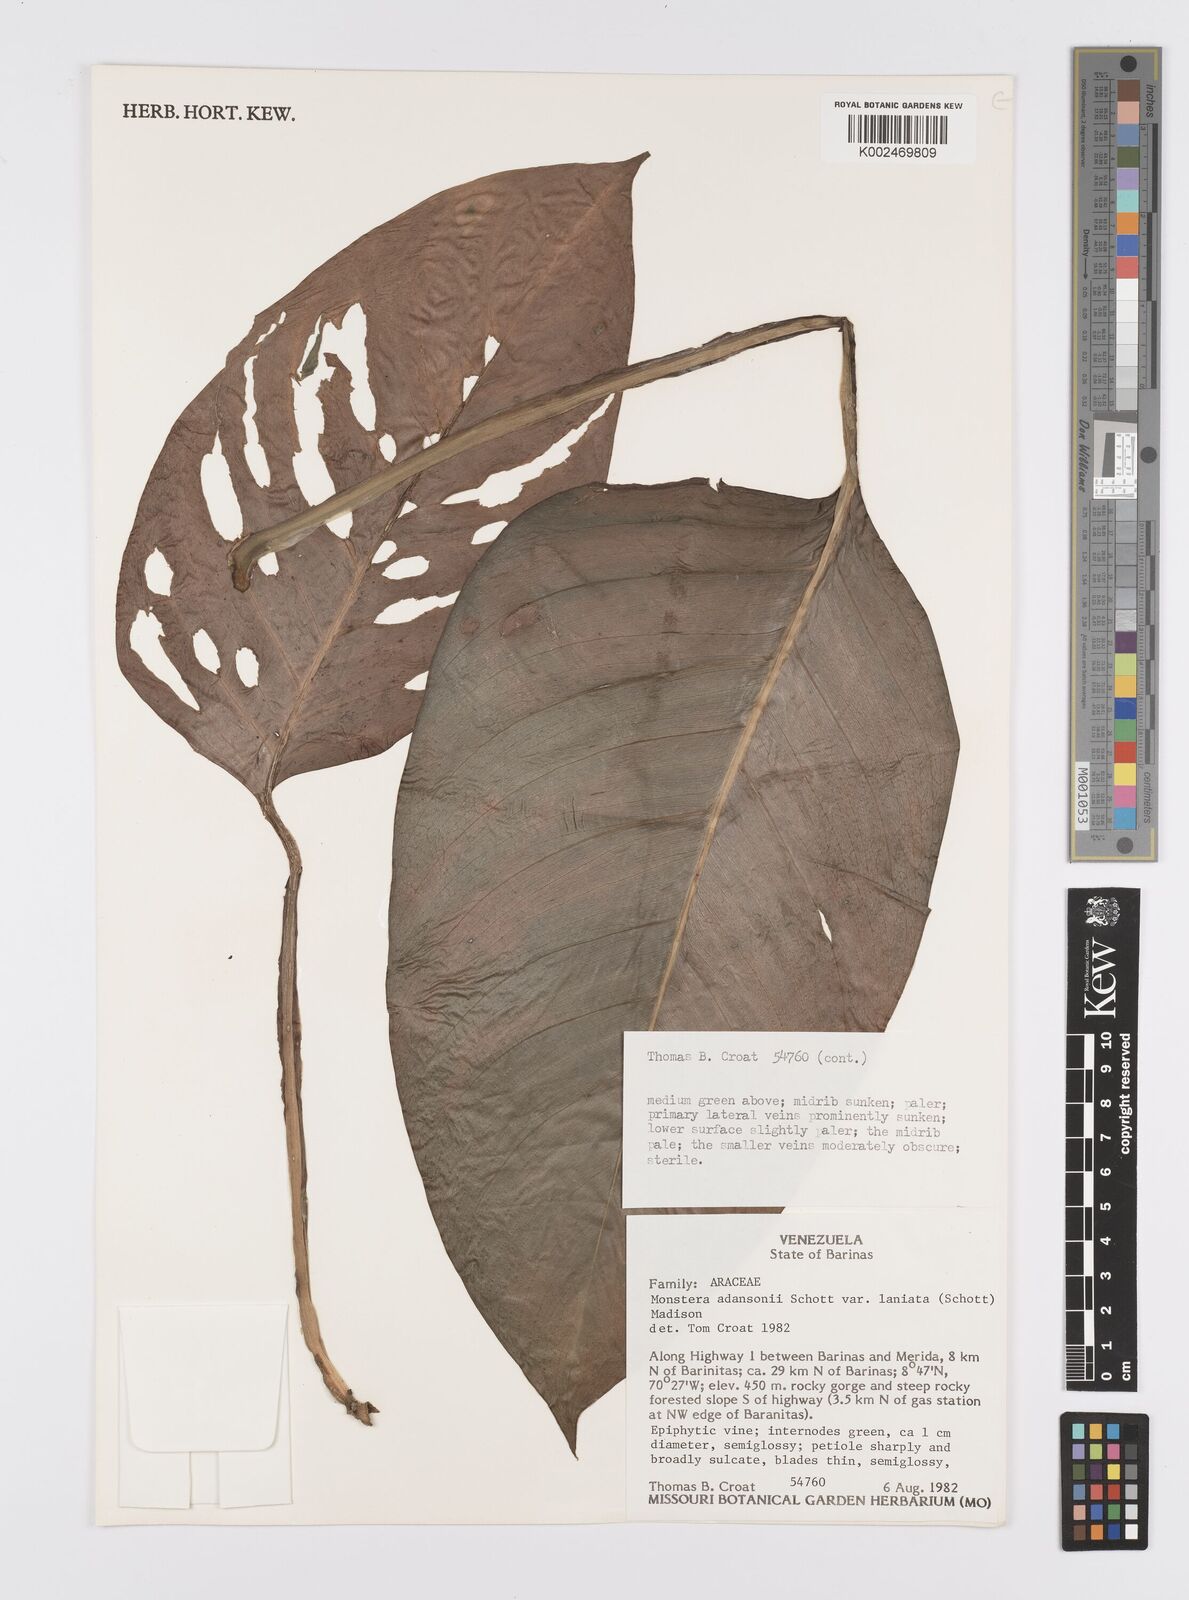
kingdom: Plantae
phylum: Tracheophyta
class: Liliopsida
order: Alismatales
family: Araceae
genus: Monstera
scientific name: Monstera adansonii
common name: Tarovine
